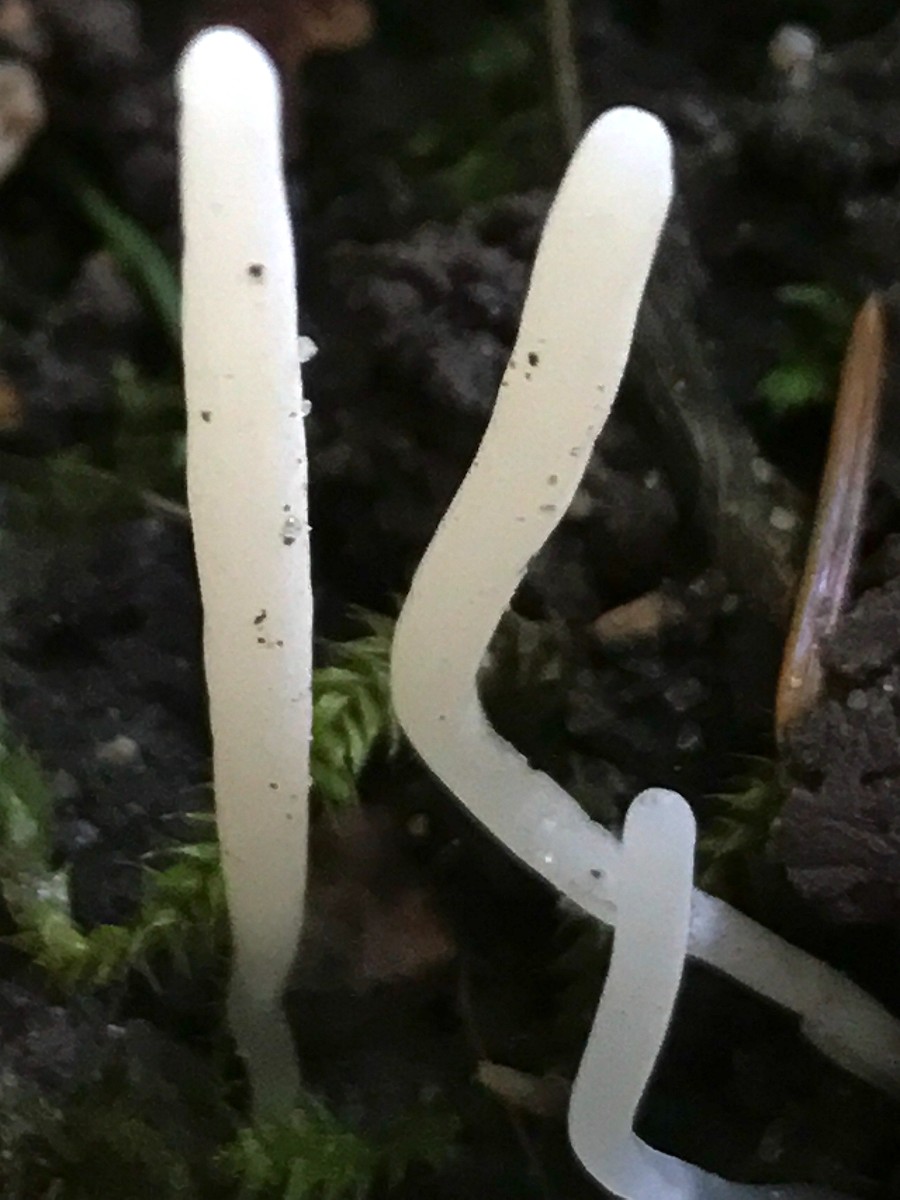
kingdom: Fungi
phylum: Basidiomycota
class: Agaricomycetes
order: Agaricales
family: Clavariaceae
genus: Clavaria
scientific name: Clavaria falcata
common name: hvid køllesvamp
